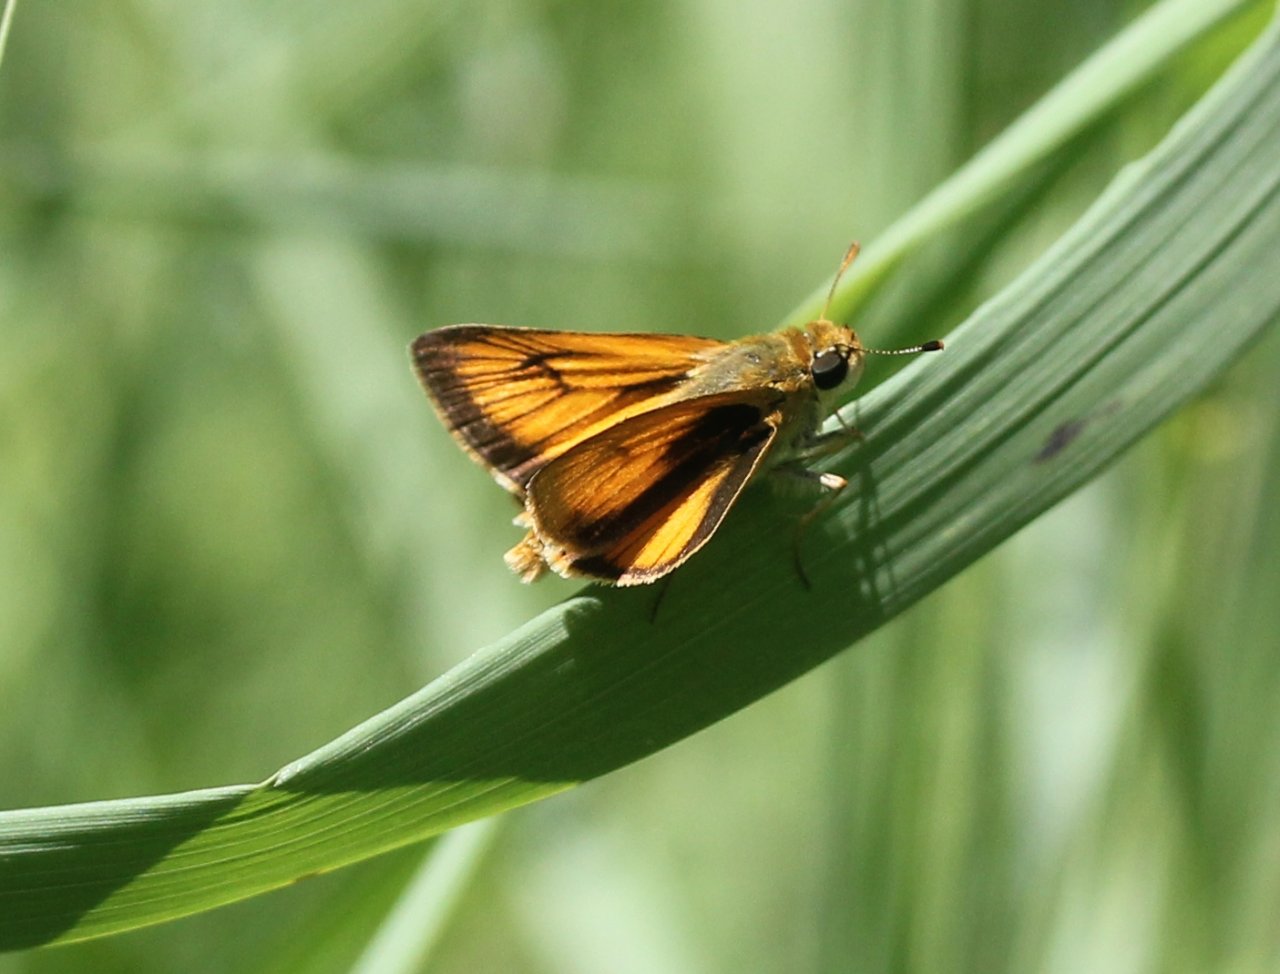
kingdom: Animalia
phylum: Arthropoda
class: Insecta
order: Lepidoptera
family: Hesperiidae
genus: Atrytone
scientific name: Atrytone delaware
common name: Delaware Skipper
